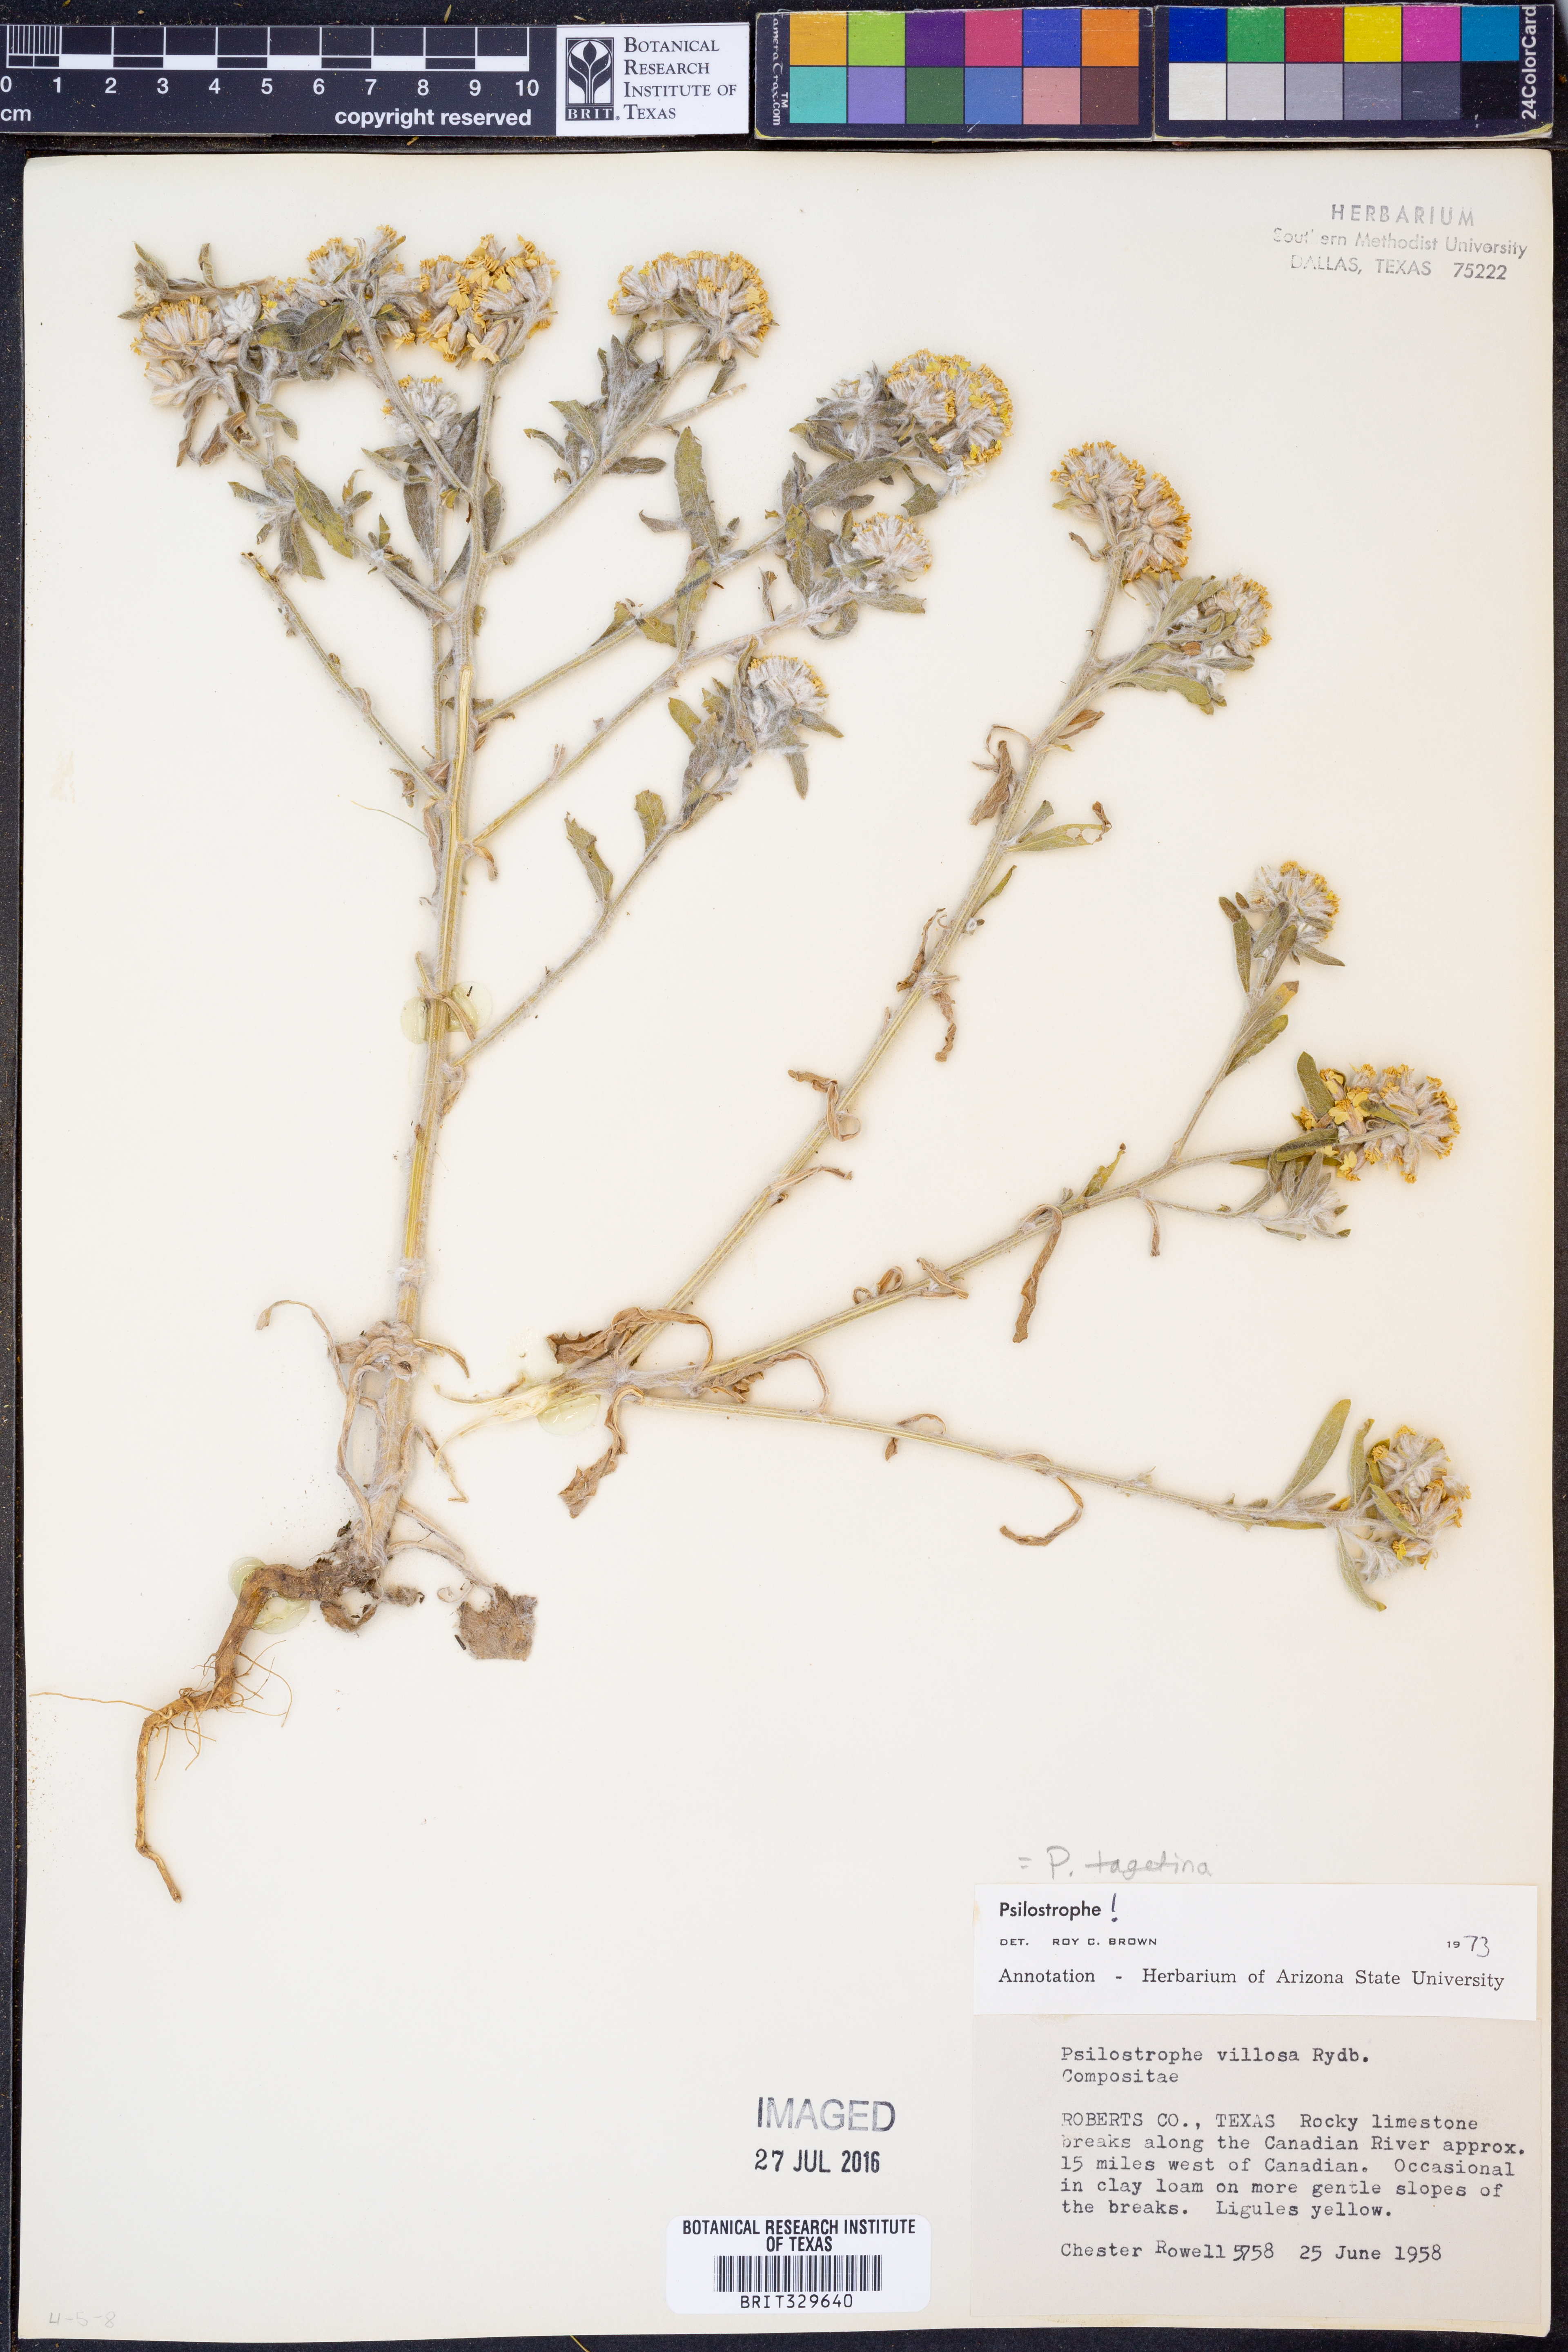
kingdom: Plantae
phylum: Tracheophyta
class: Magnoliopsida
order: Asterales
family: Asteraceae
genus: Psilostrophe
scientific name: Psilostrophe tagetina
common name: Marigold paper-flower
